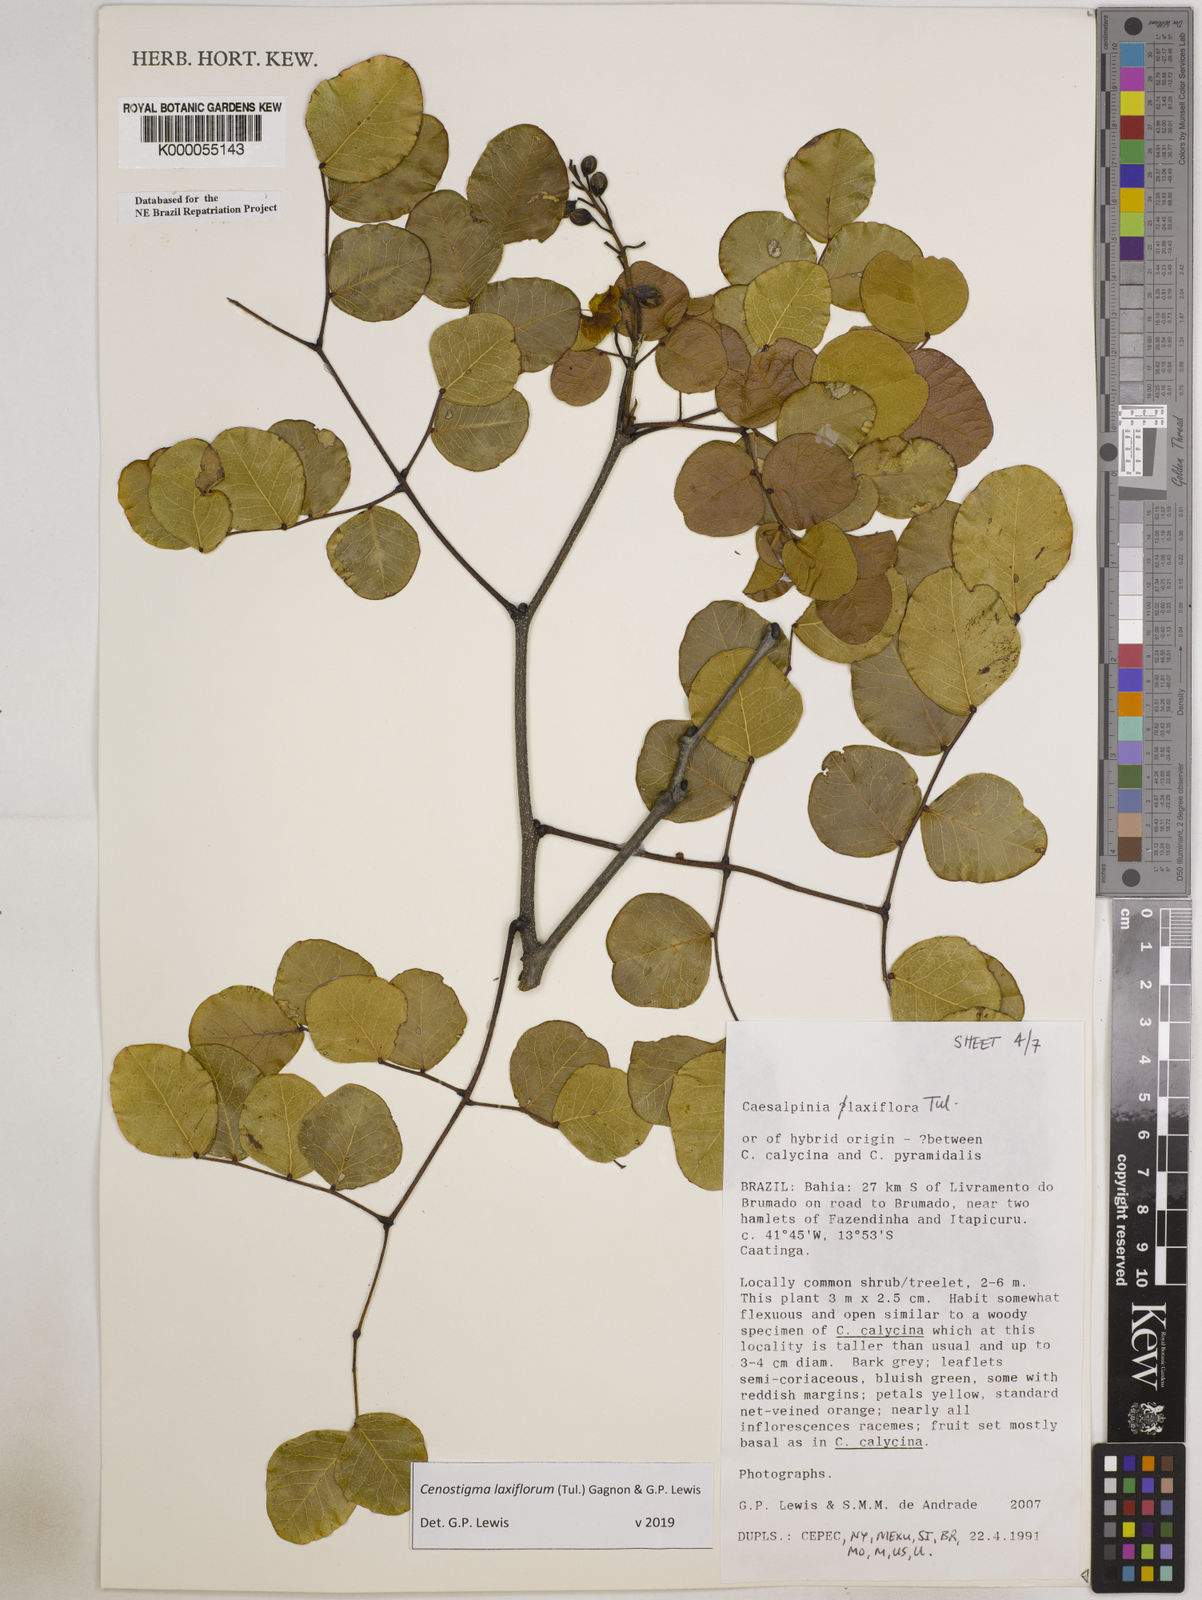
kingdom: Plantae
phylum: Tracheophyta
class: Magnoliopsida
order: Fabales
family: Fabaceae
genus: Cenostigma
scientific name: Cenostigma laxiflorum
